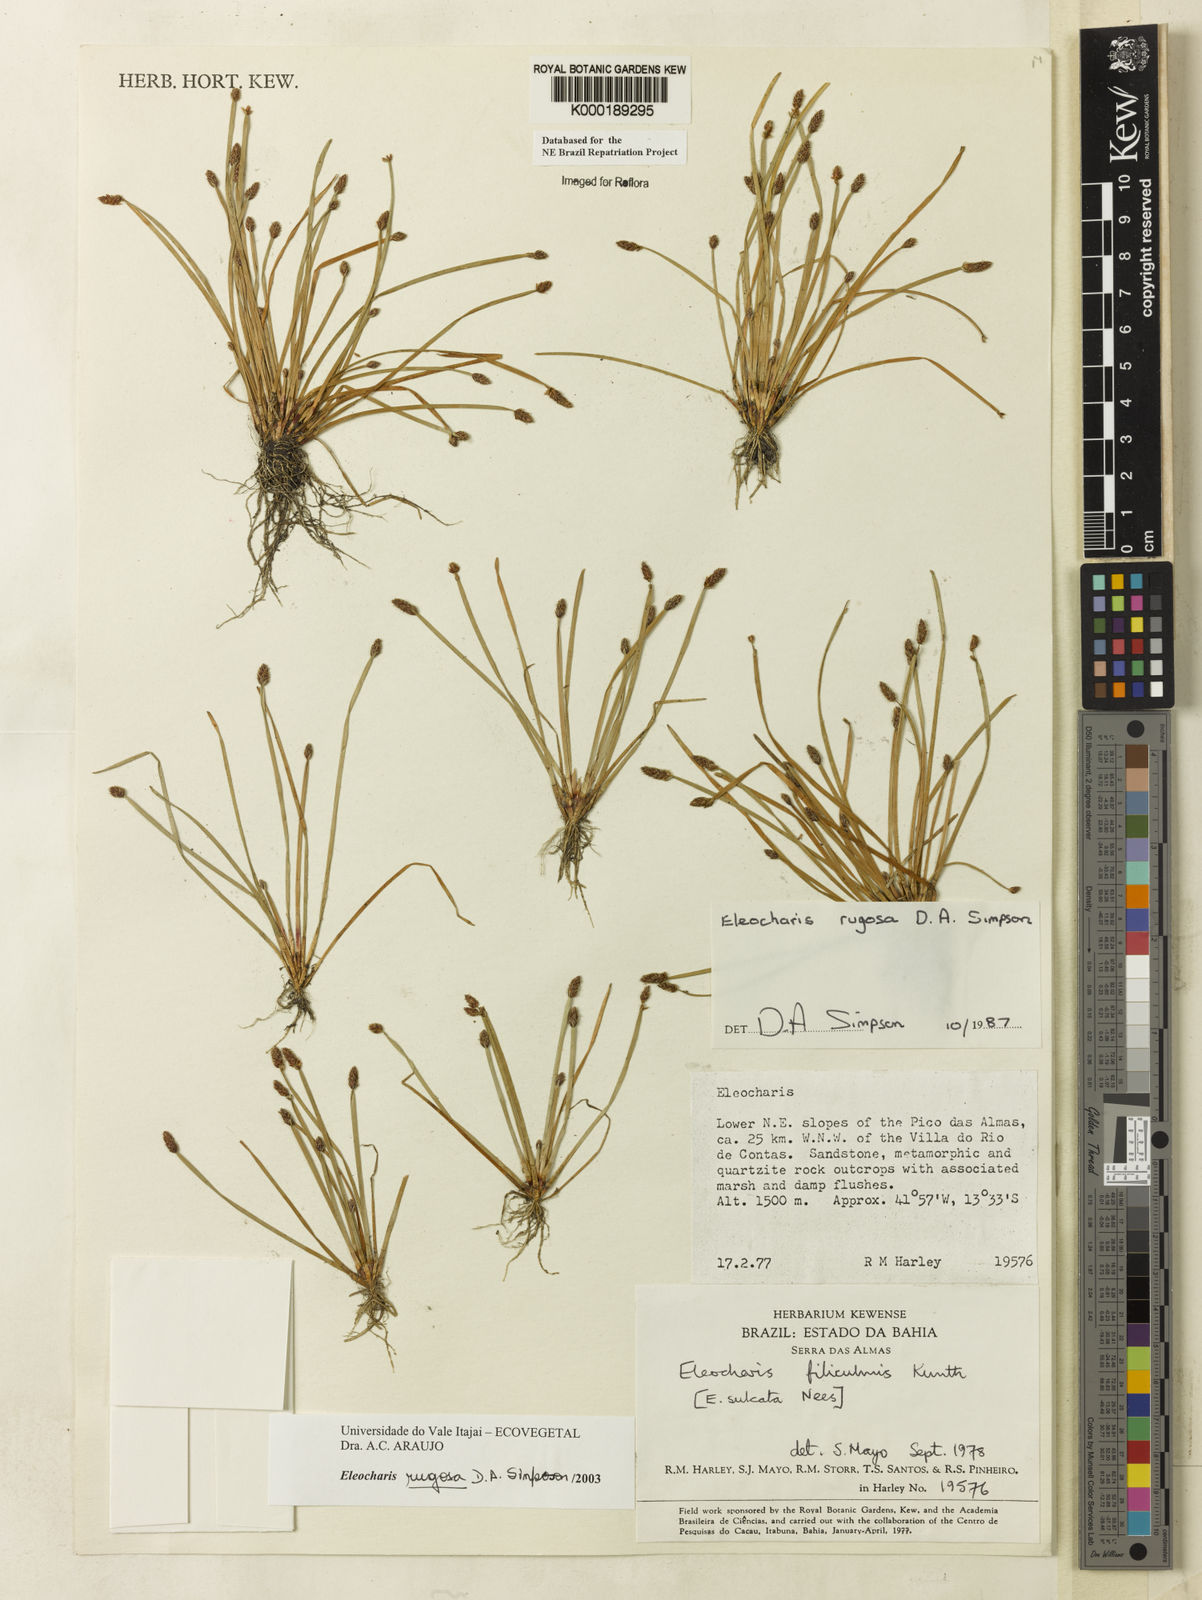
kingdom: Plantae
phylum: Tracheophyta
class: Liliopsida
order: Poales
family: Cyperaceae
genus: Eleocharis
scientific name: Eleocharis rugosa
